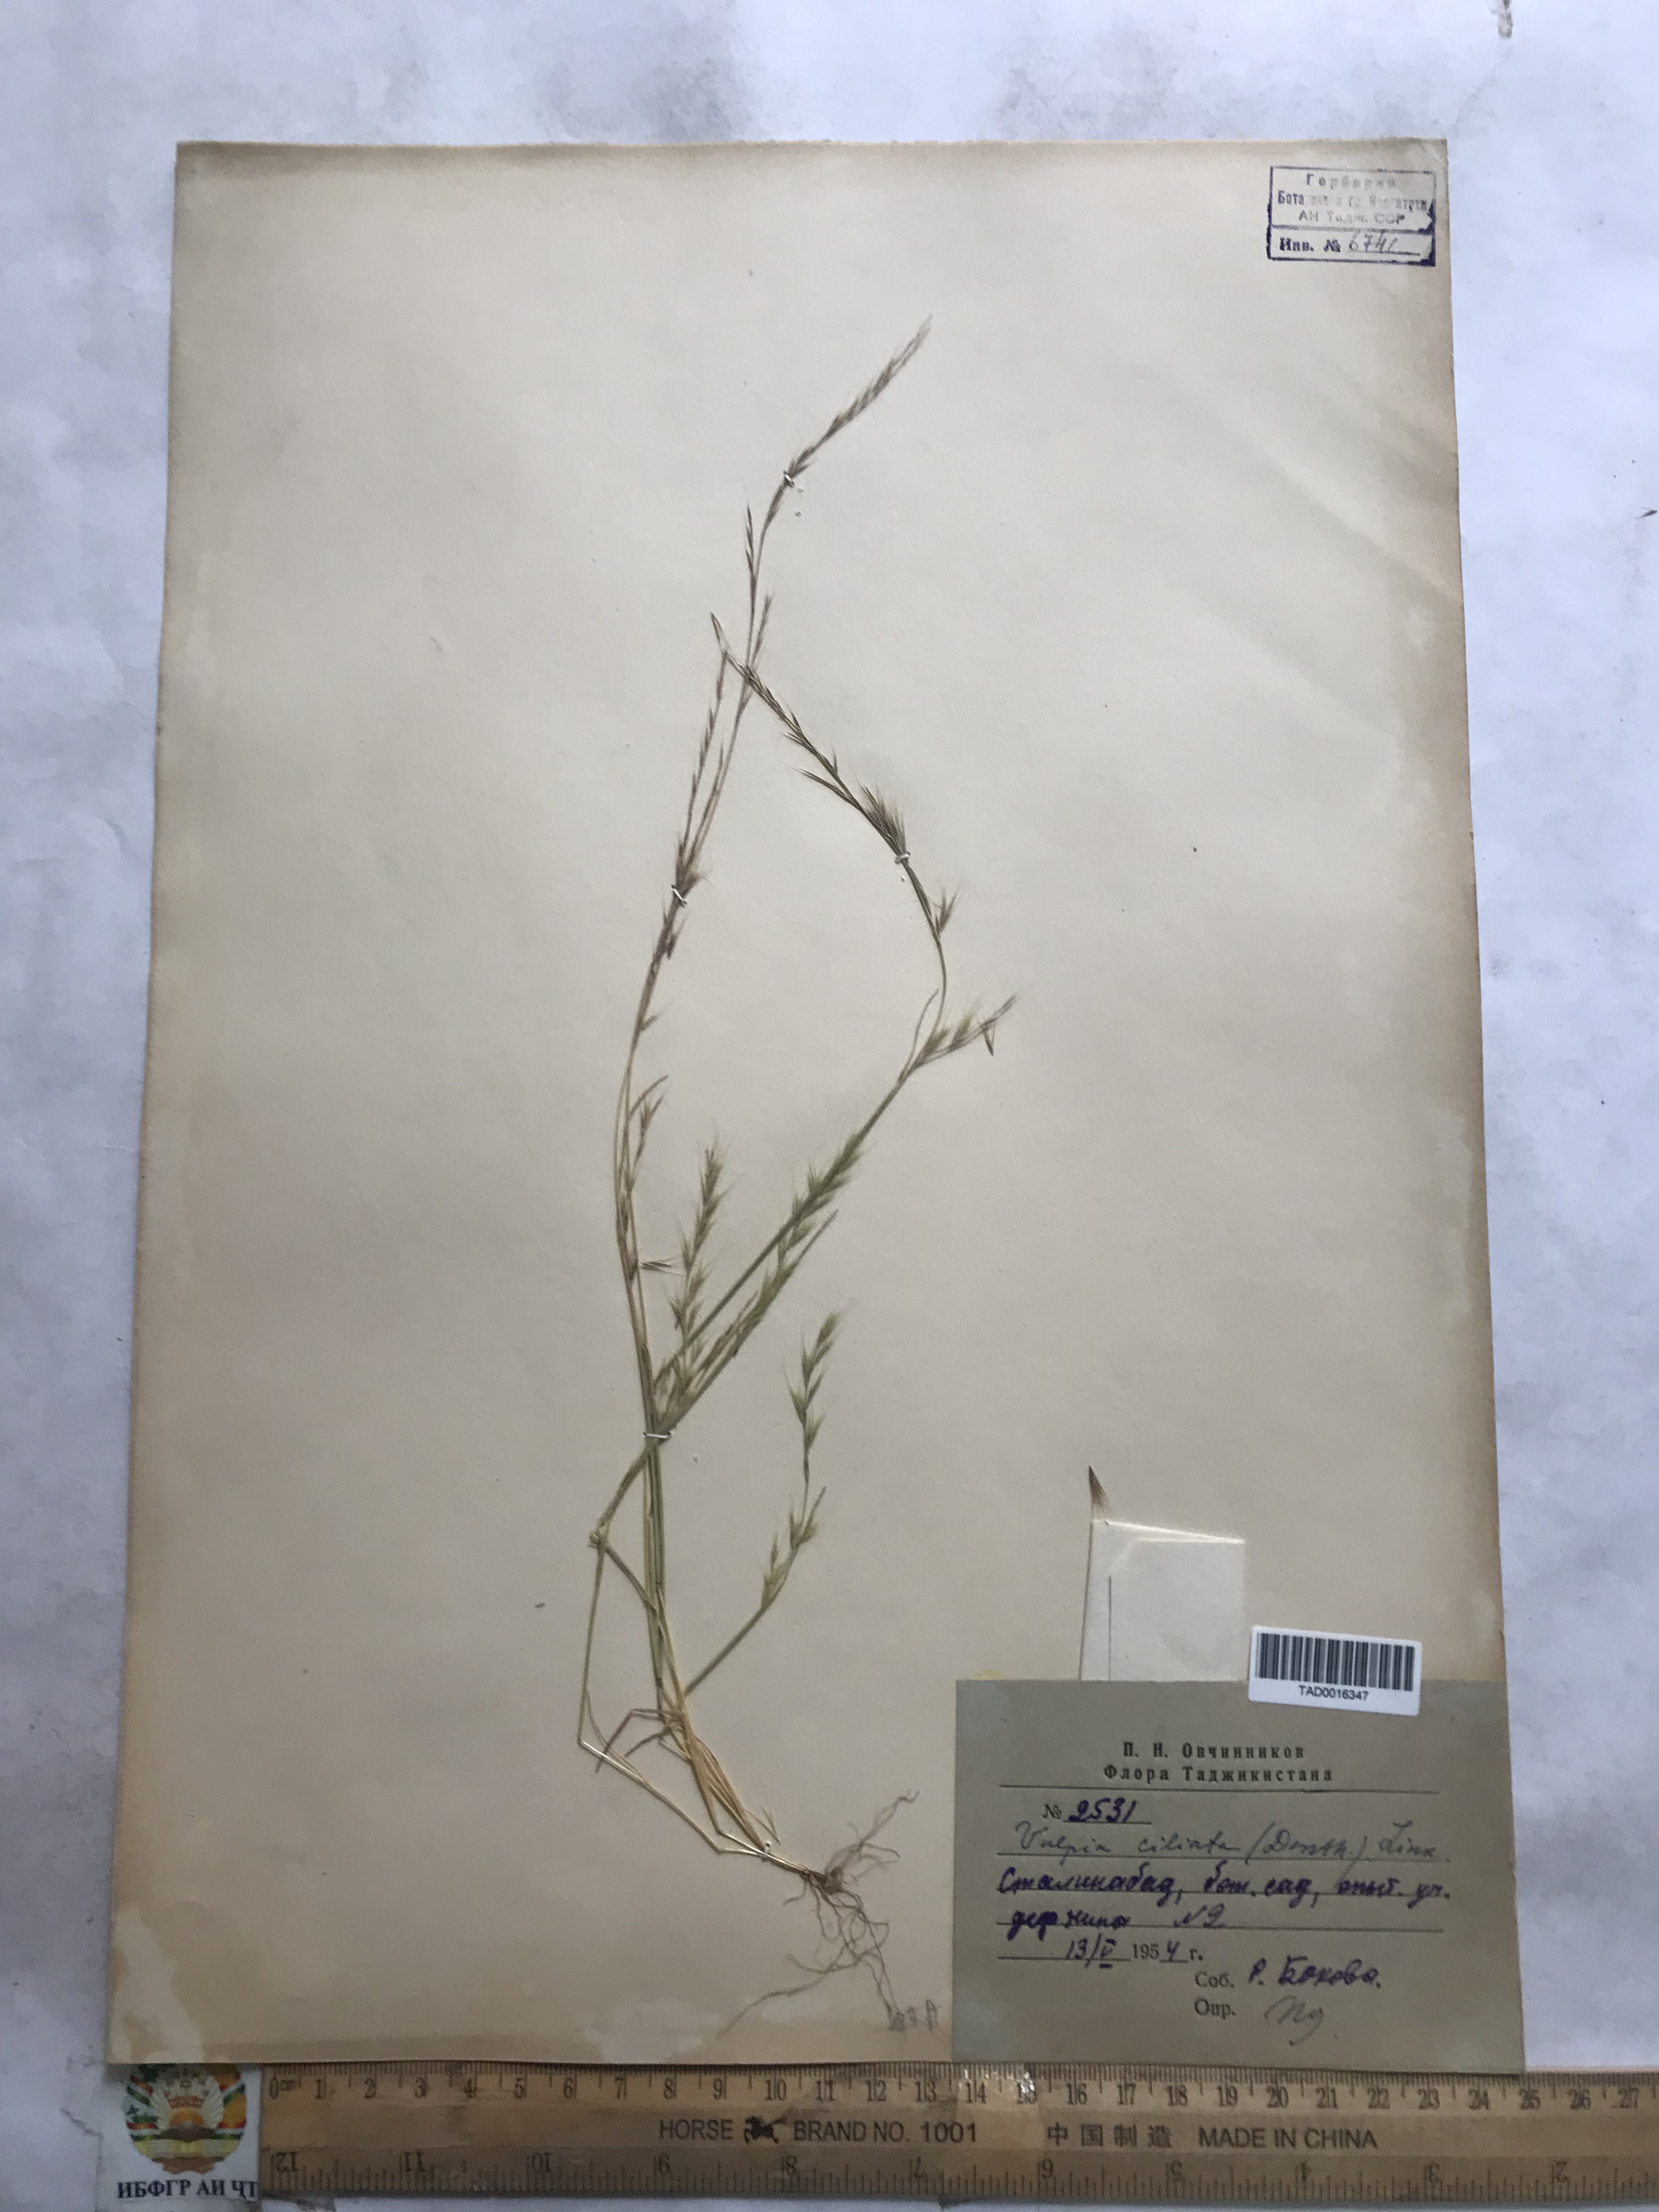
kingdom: Plantae
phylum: Tracheophyta
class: Liliopsida
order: Poales
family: Poaceae
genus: Festuca
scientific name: Festuca ambigua
